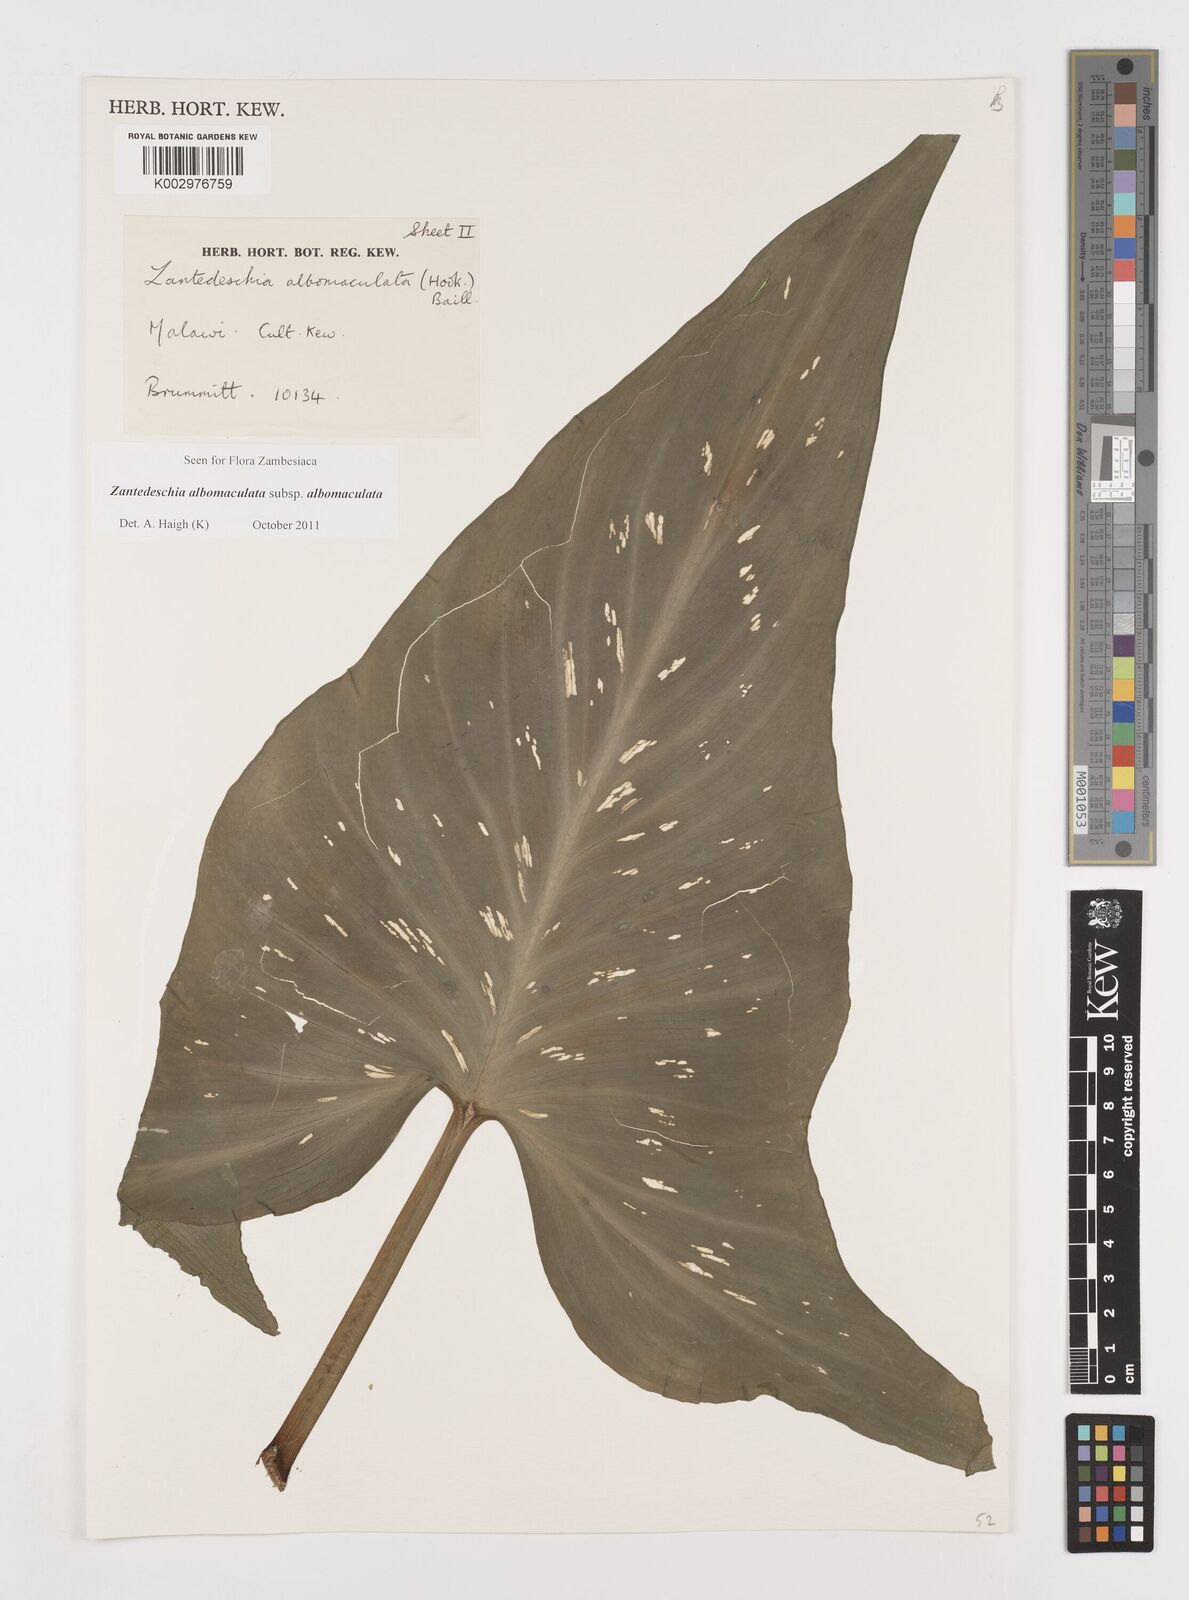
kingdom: Plantae
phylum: Tracheophyta
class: Liliopsida
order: Alismatales
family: Araceae
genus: Zantedeschia
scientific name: Zantedeschia albomaculata
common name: Spotted calla lily
